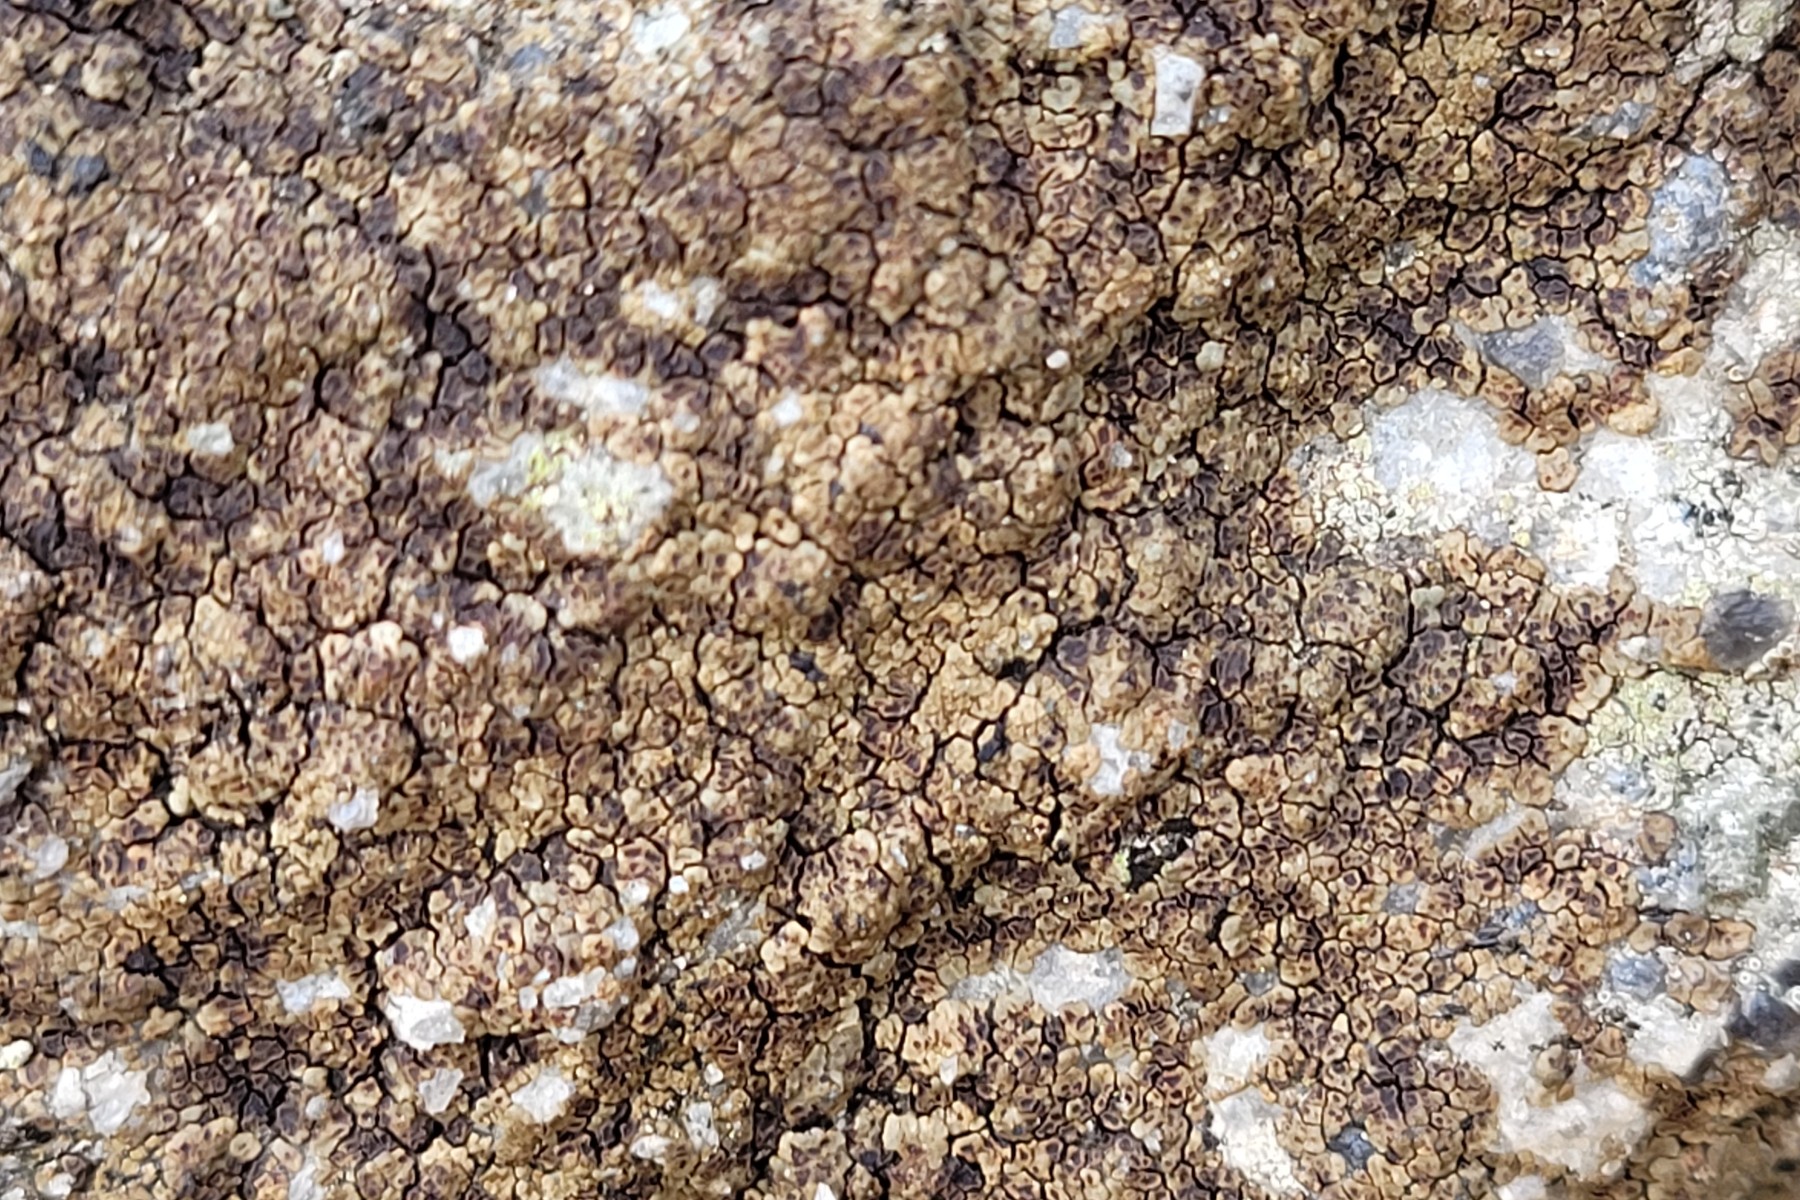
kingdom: Fungi
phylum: Ascomycota
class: Lecanoromycetes
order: Acarosporales
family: Acarosporaceae
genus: Acarospora
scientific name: Acarospora fuscata
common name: brun småsporelav
